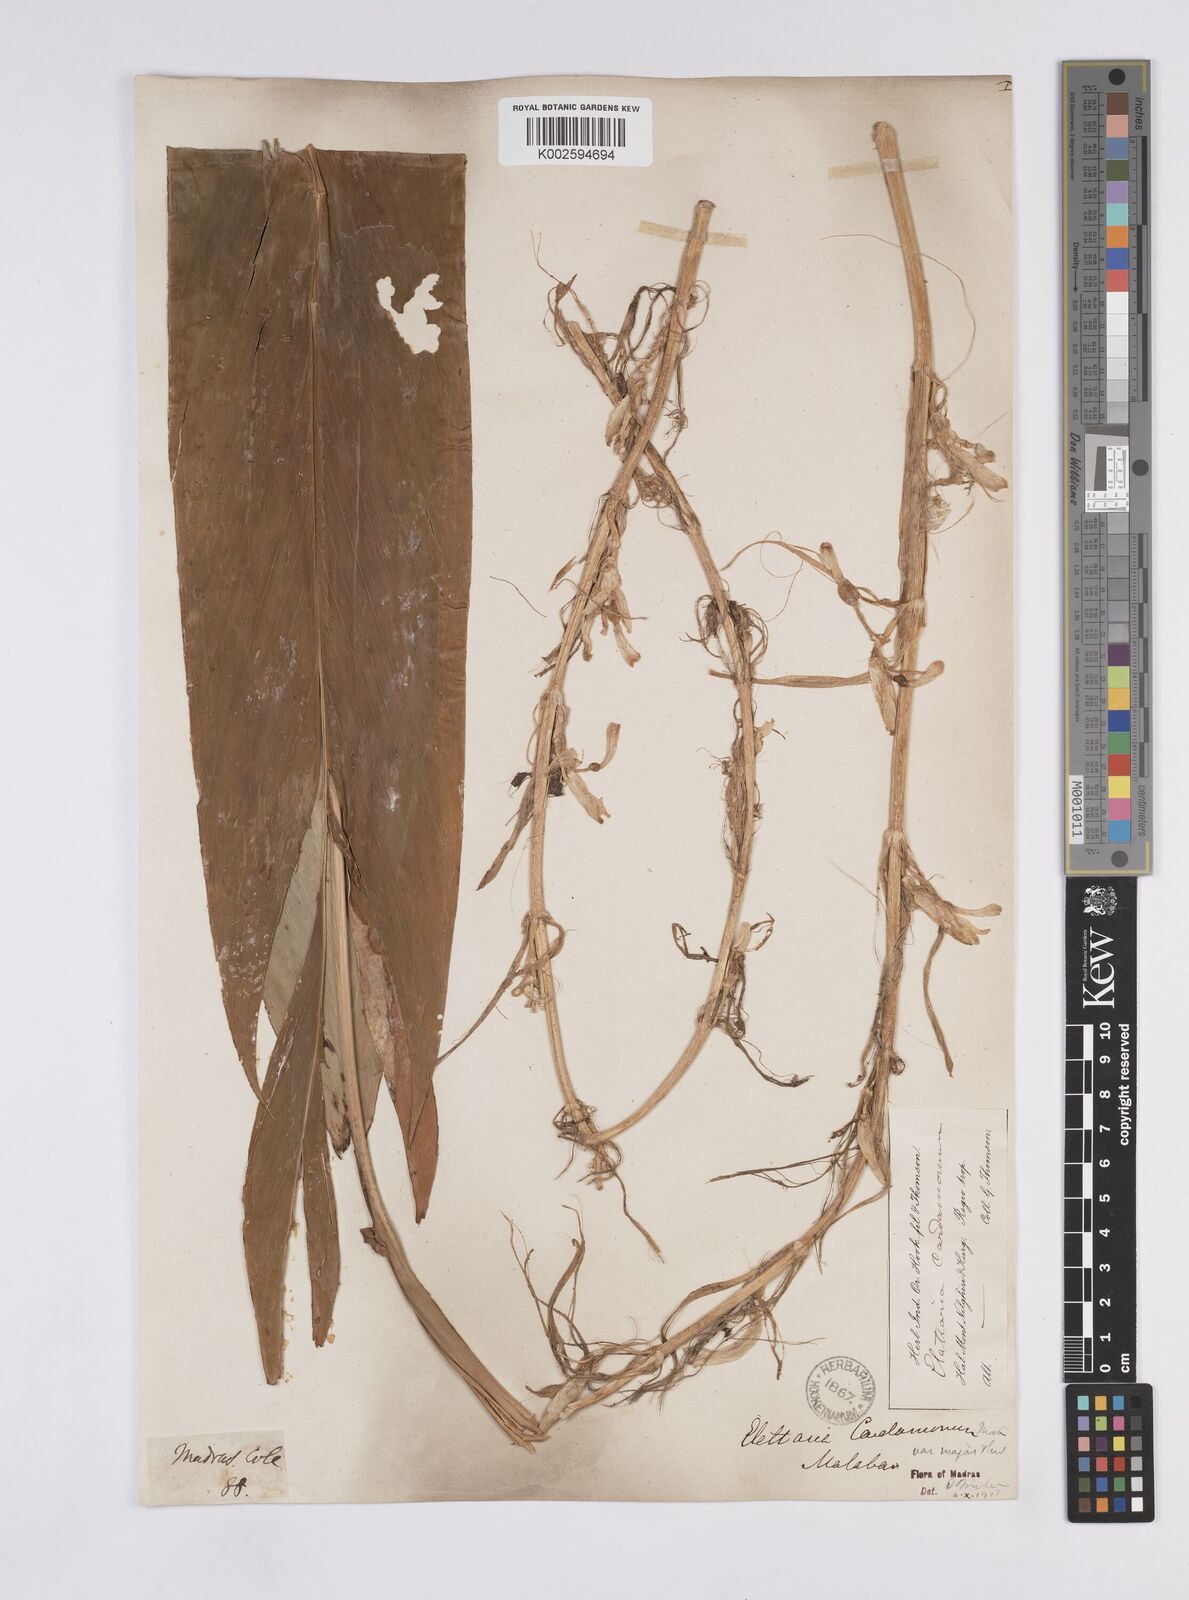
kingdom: Plantae
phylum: Tracheophyta
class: Liliopsida
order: Zingiberales
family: Zingiberaceae
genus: Elettaria
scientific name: Elettaria ensal
